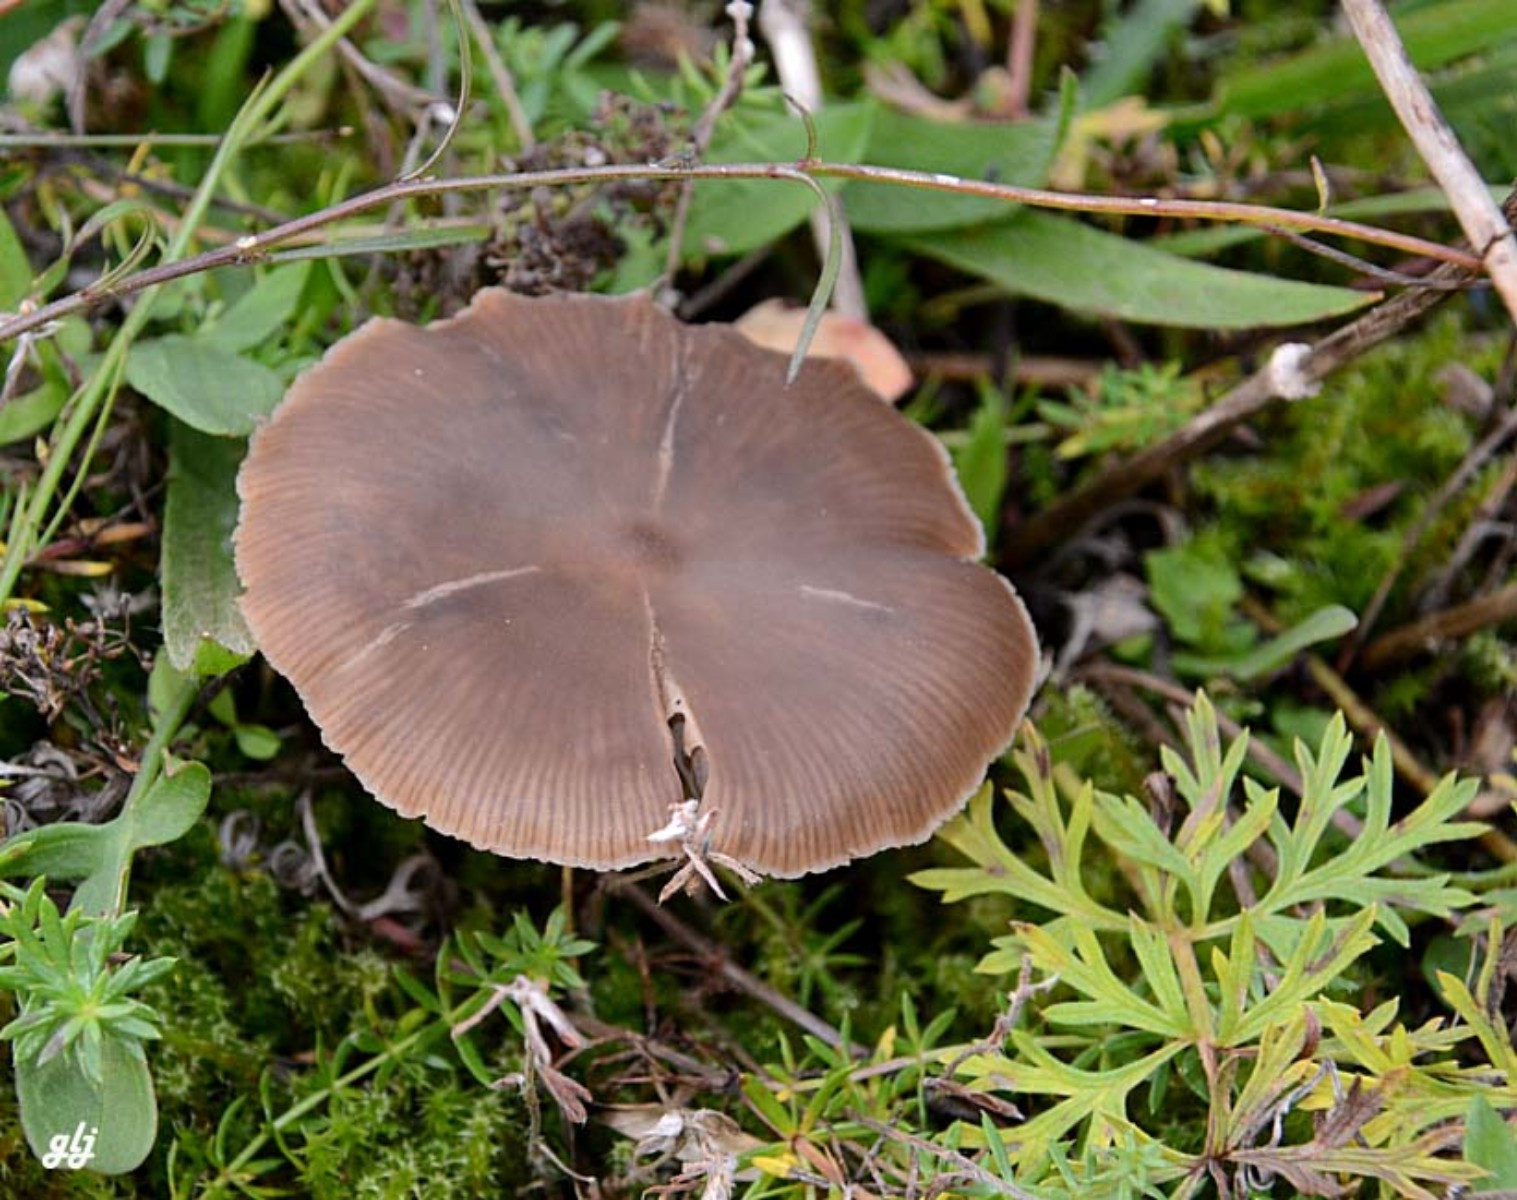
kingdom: Fungi
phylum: Basidiomycota
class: Agaricomycetes
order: Agaricales
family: Entolomataceae
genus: Entoloma
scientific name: Entoloma sericeum
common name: silkeglinsende rødblad
